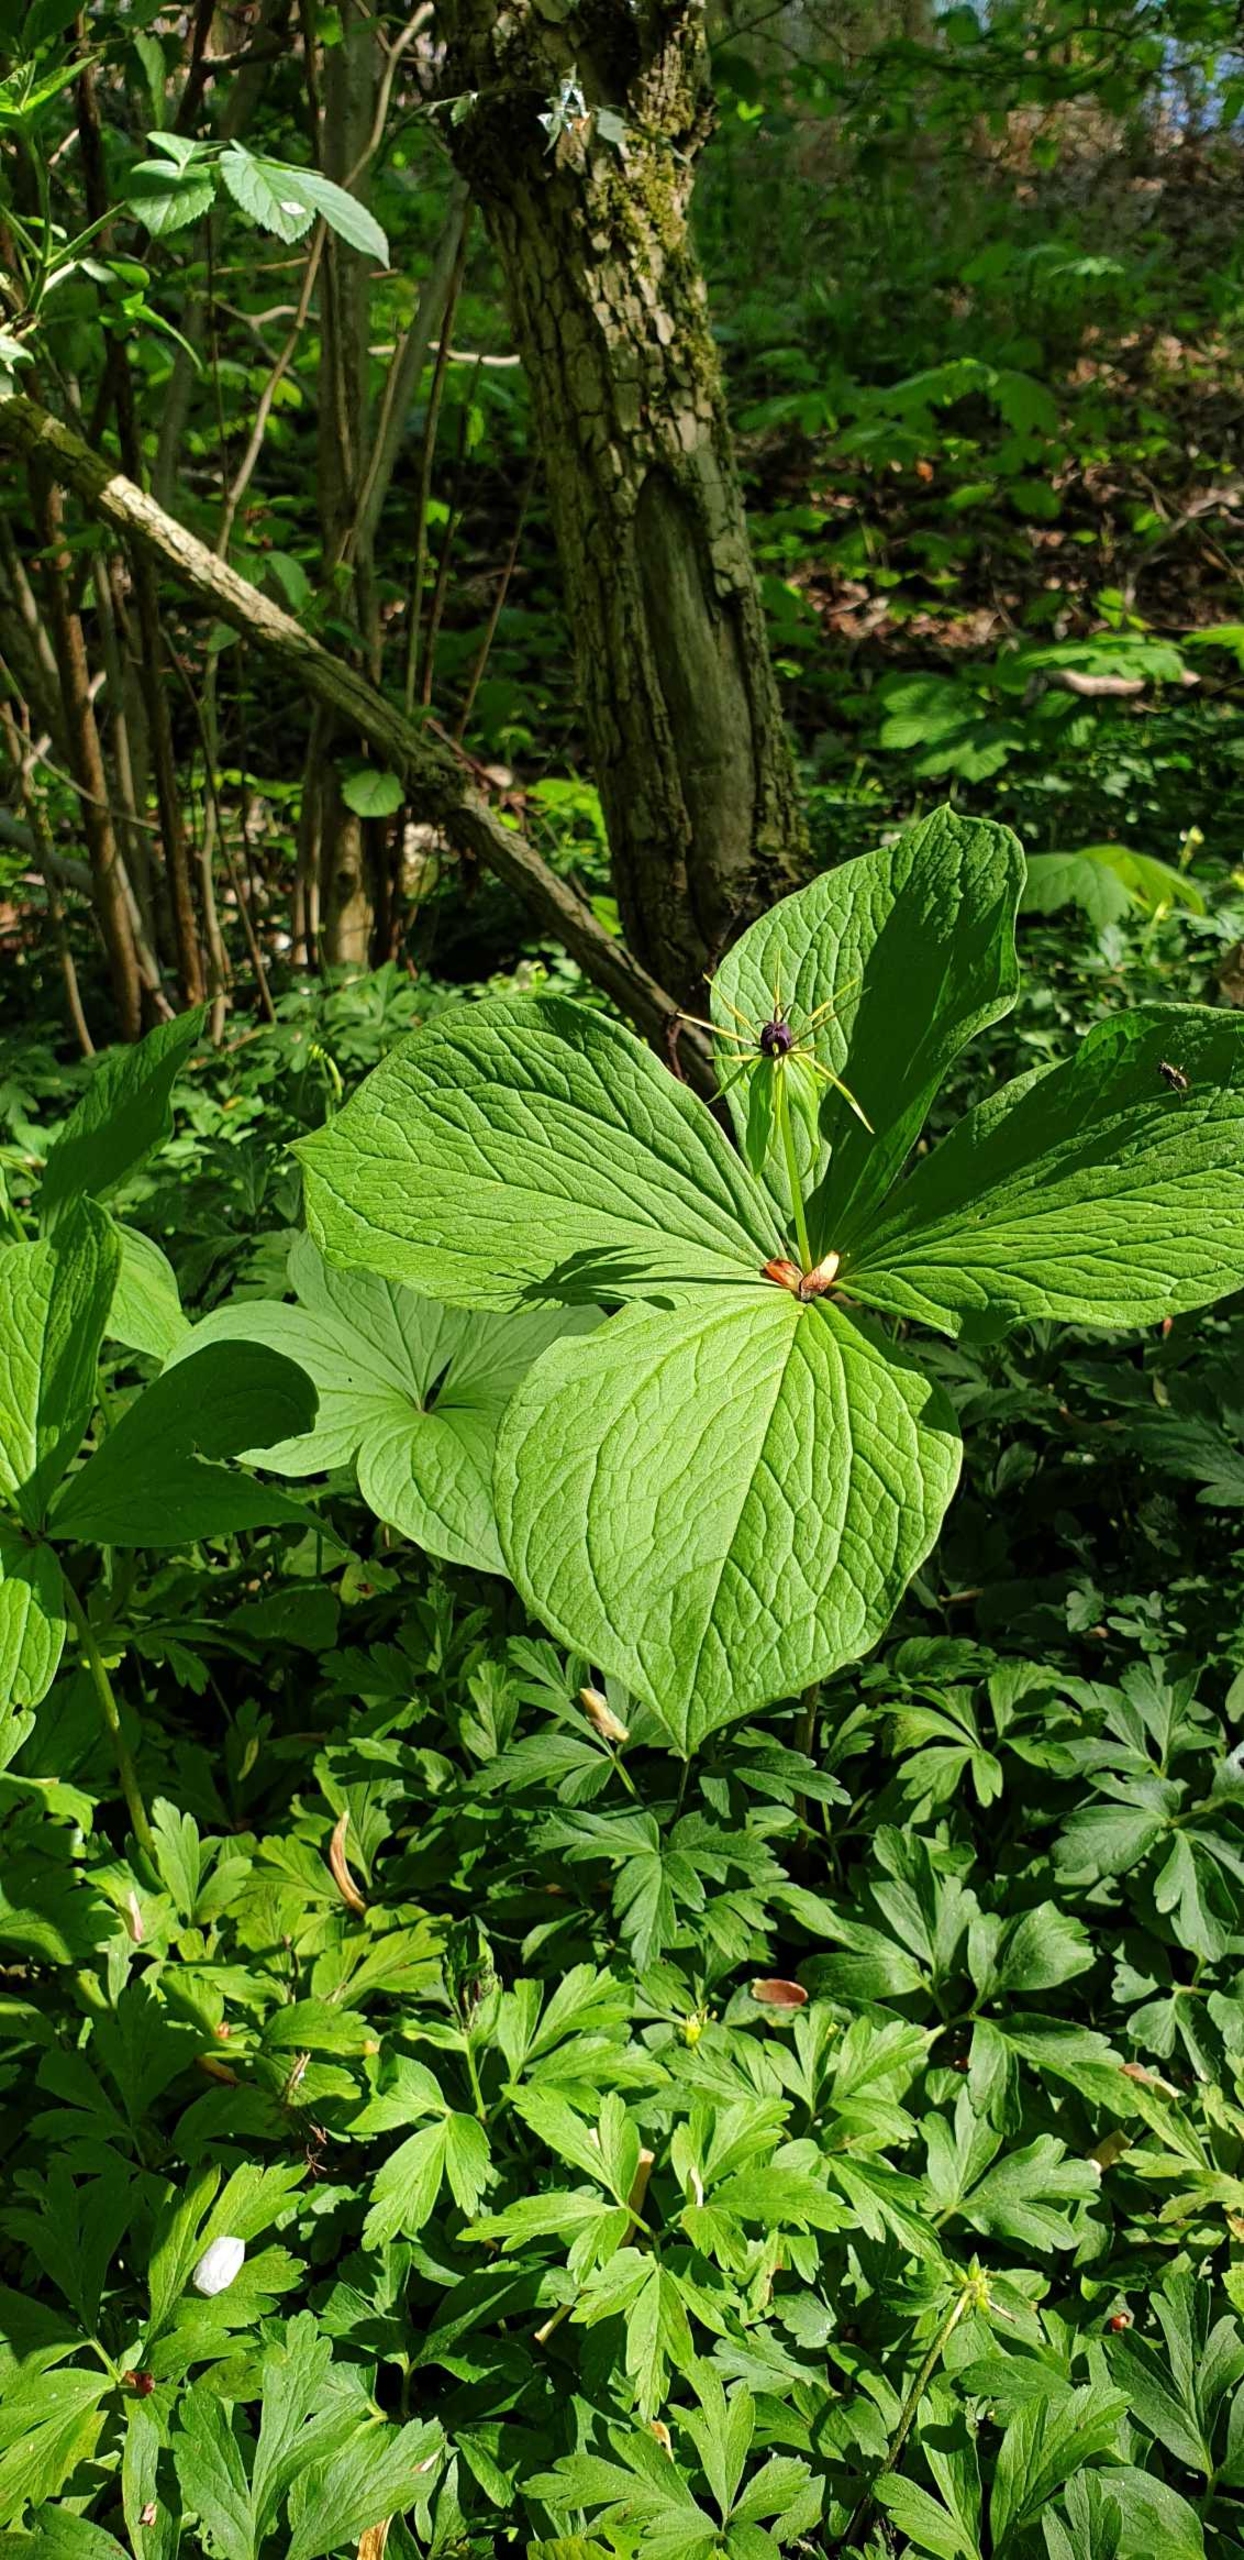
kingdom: Plantae
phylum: Tracheophyta
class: Liliopsida
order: Liliales
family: Melanthiaceae
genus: Paris
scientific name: Paris quadrifolia
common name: Firblad
